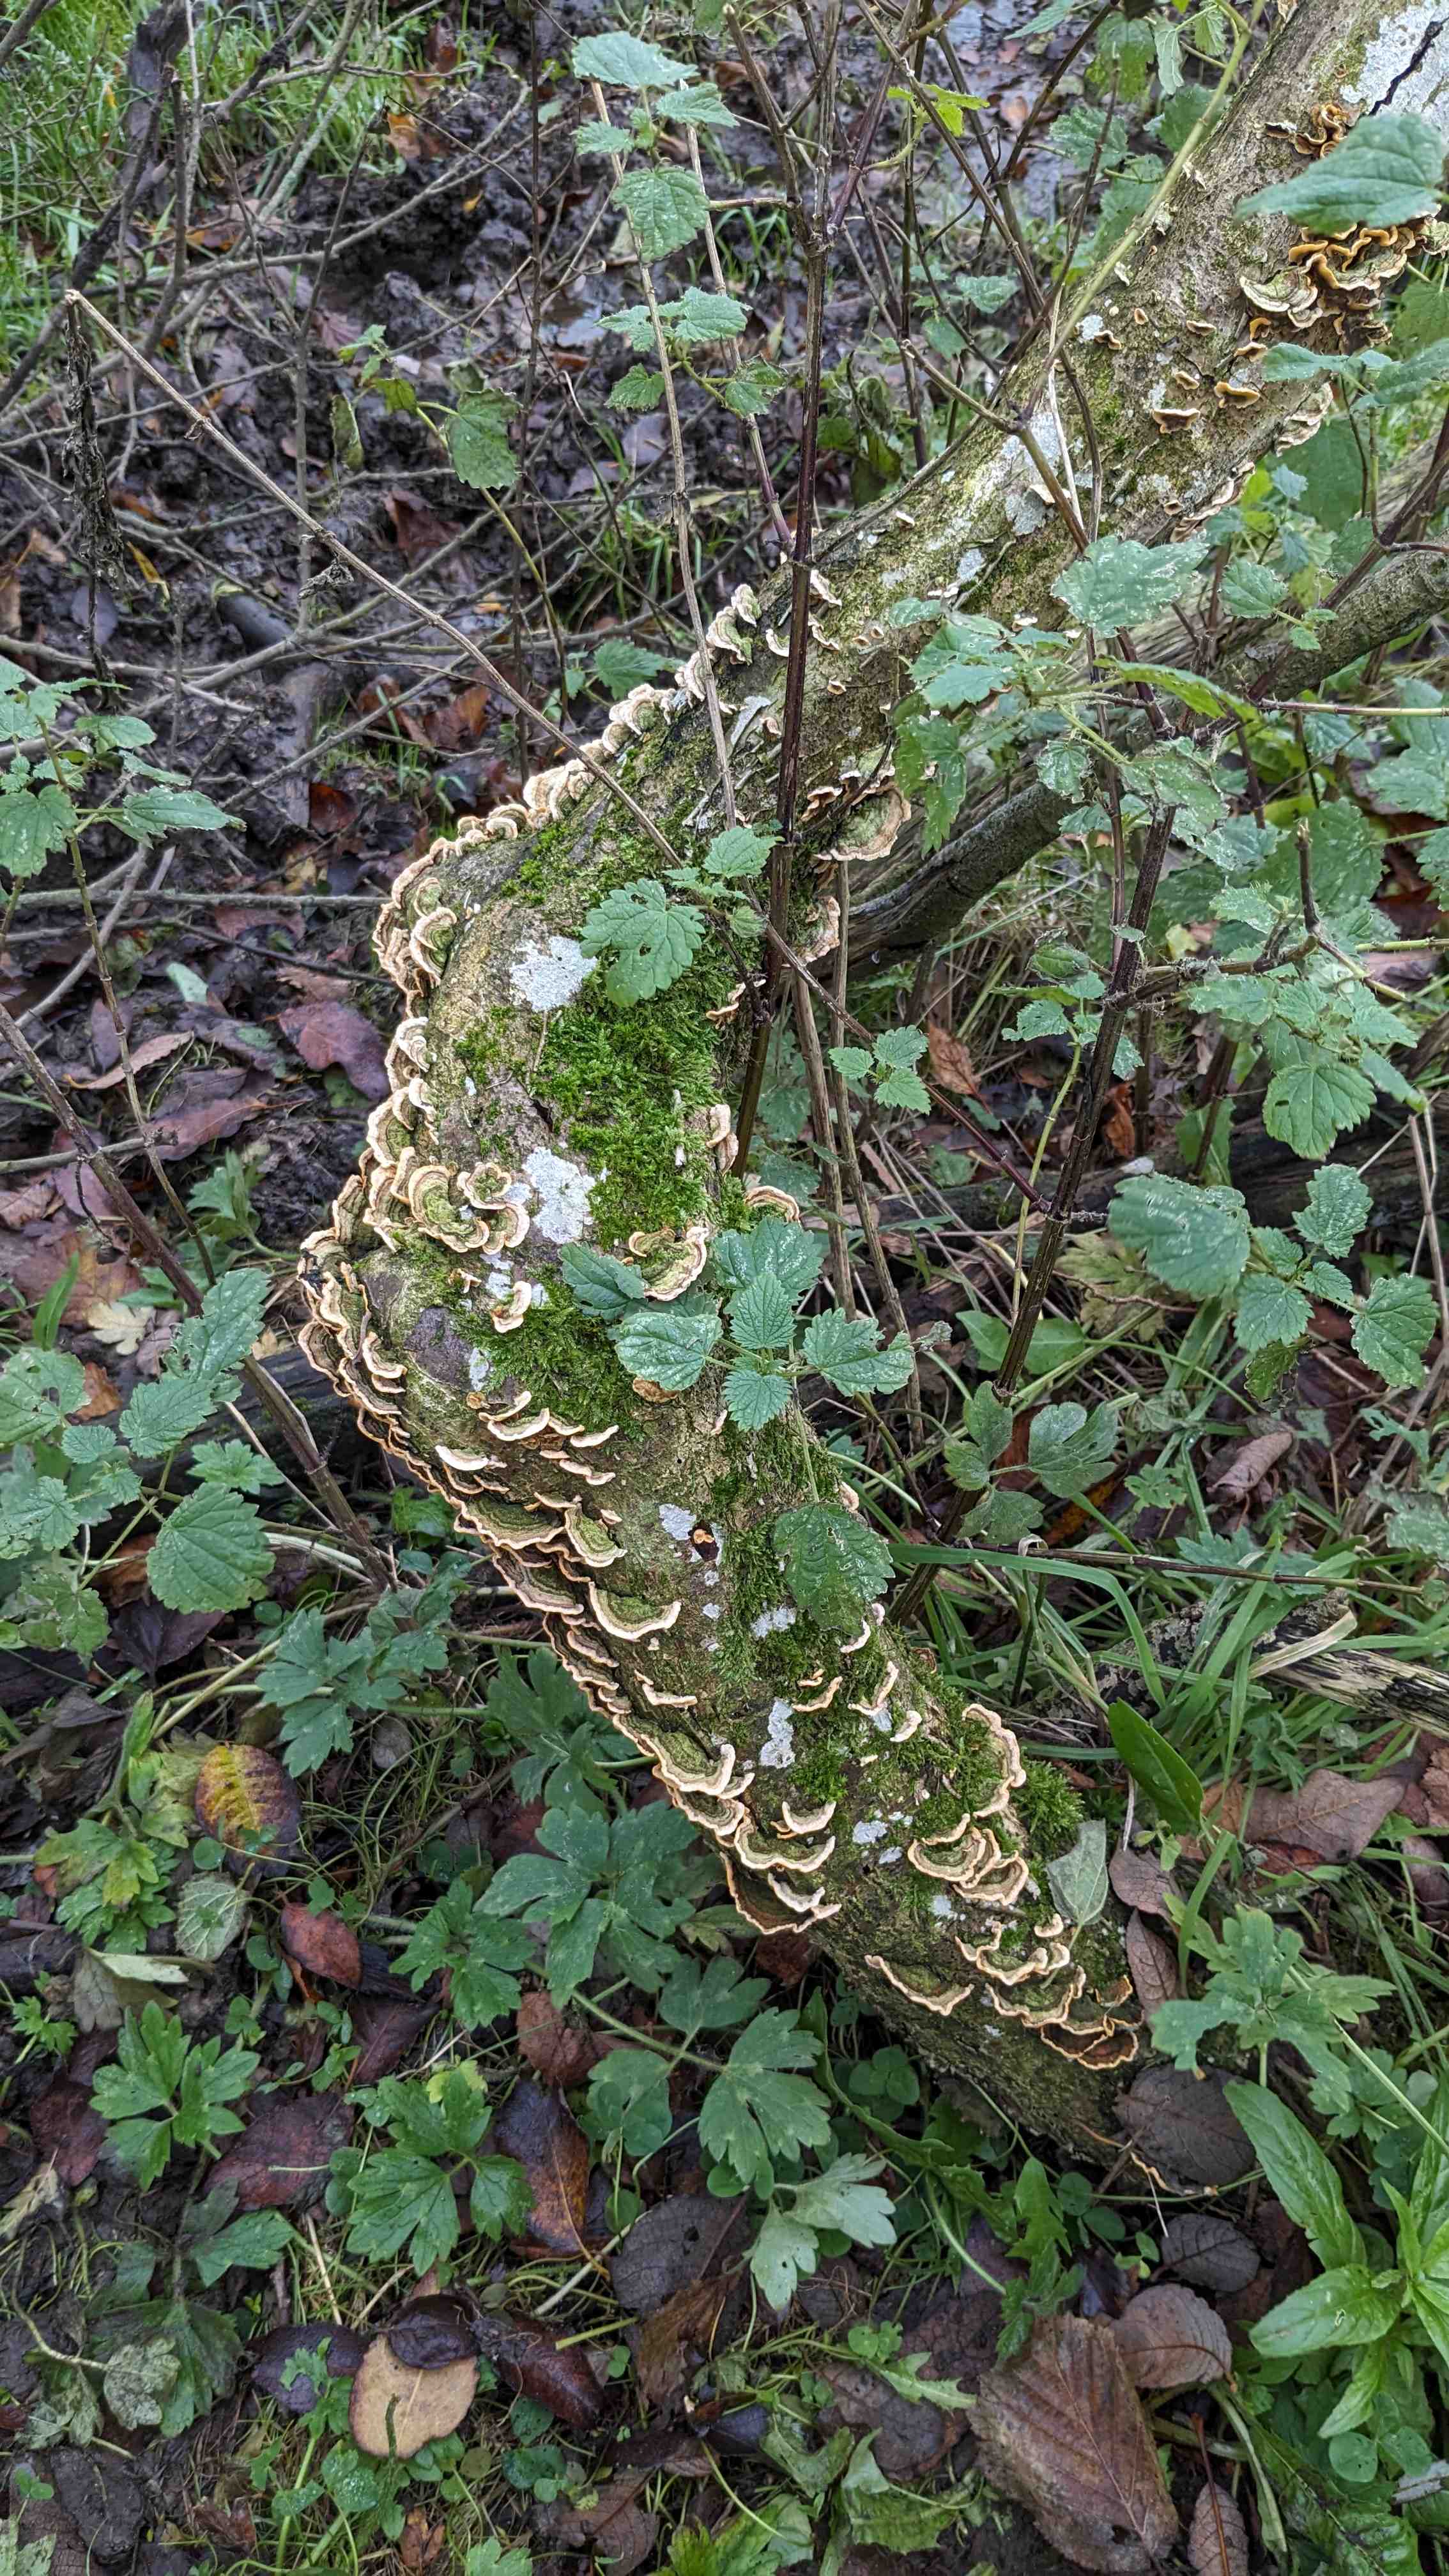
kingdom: Fungi
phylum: Basidiomycota
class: Agaricomycetes
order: Russulales
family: Stereaceae
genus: Stereum
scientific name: Stereum subtomentosum
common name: smuk lædersvamp
